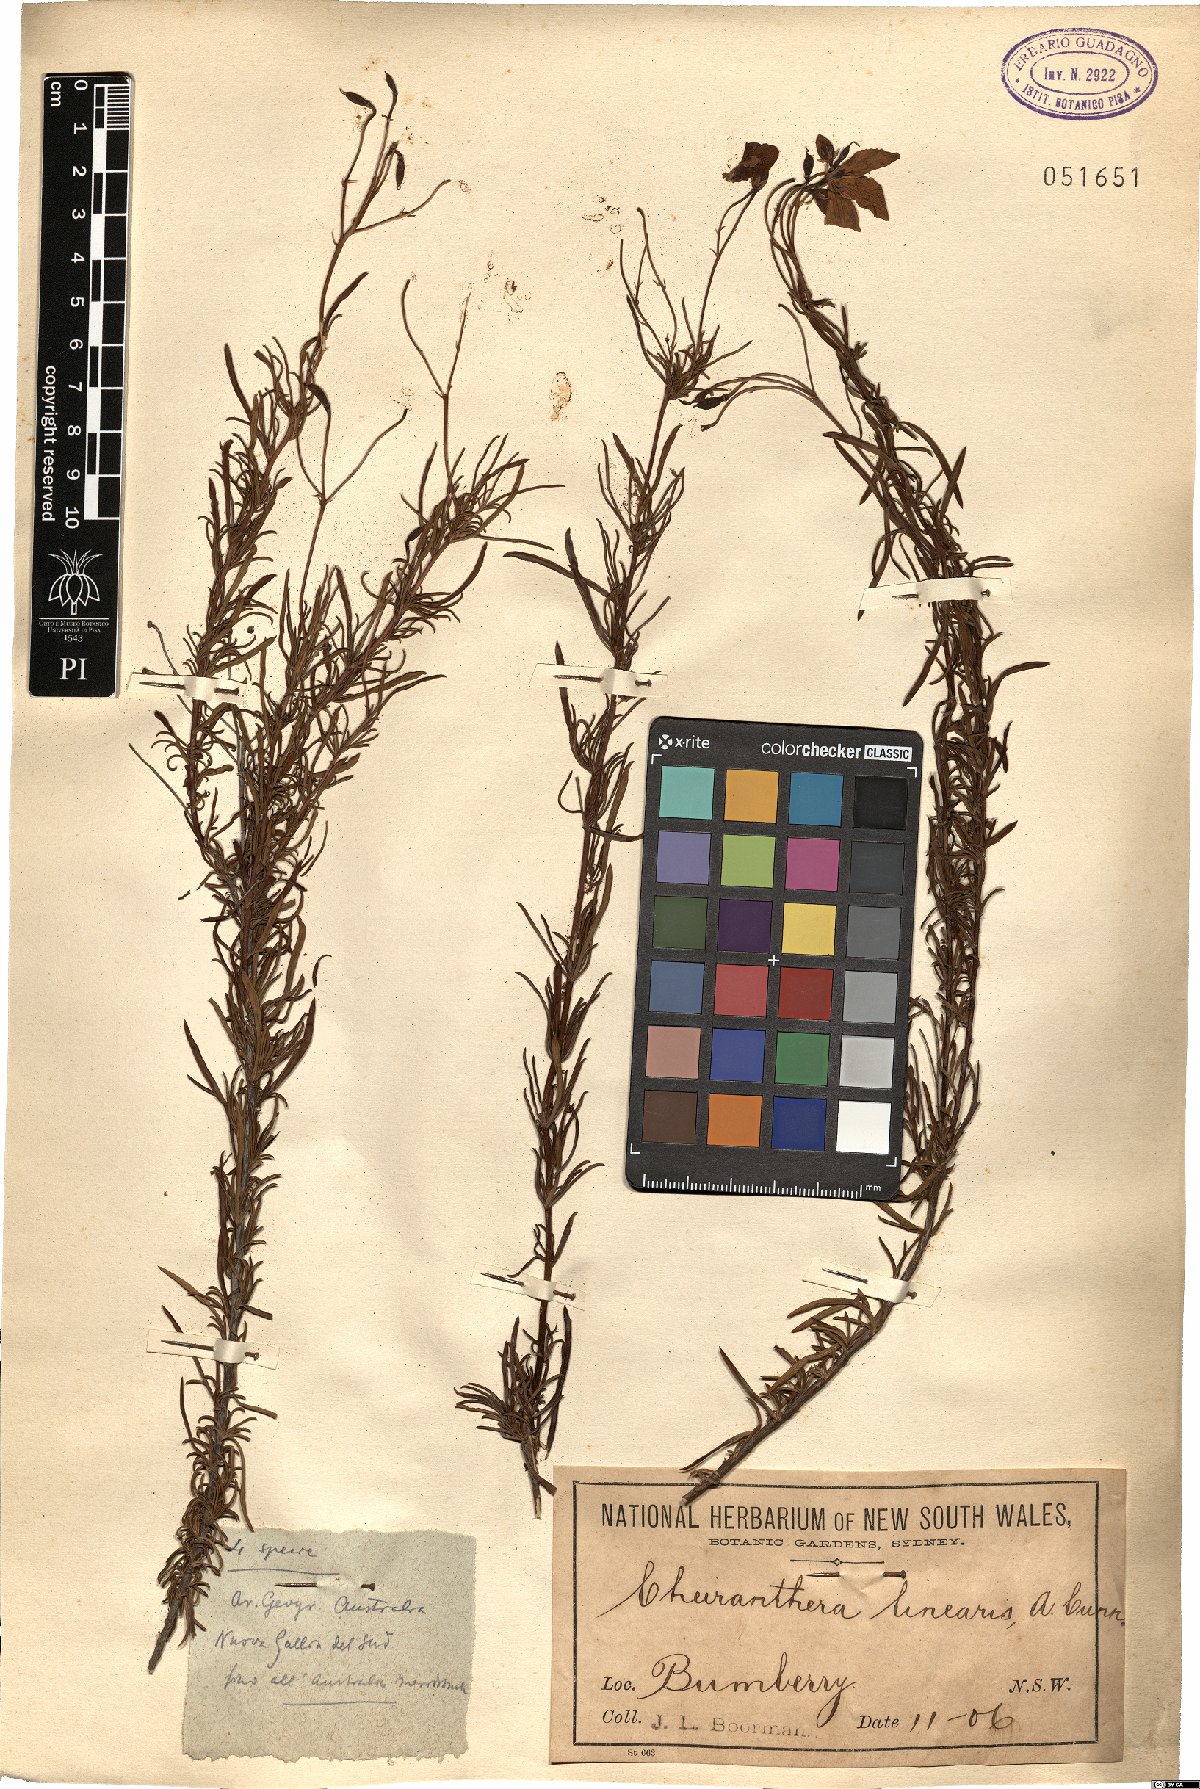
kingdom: Plantae
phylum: Tracheophyta
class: Magnoliopsida
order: Apiales
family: Pittosporaceae
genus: Cheiranthera
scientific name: Cheiranthera linearis
